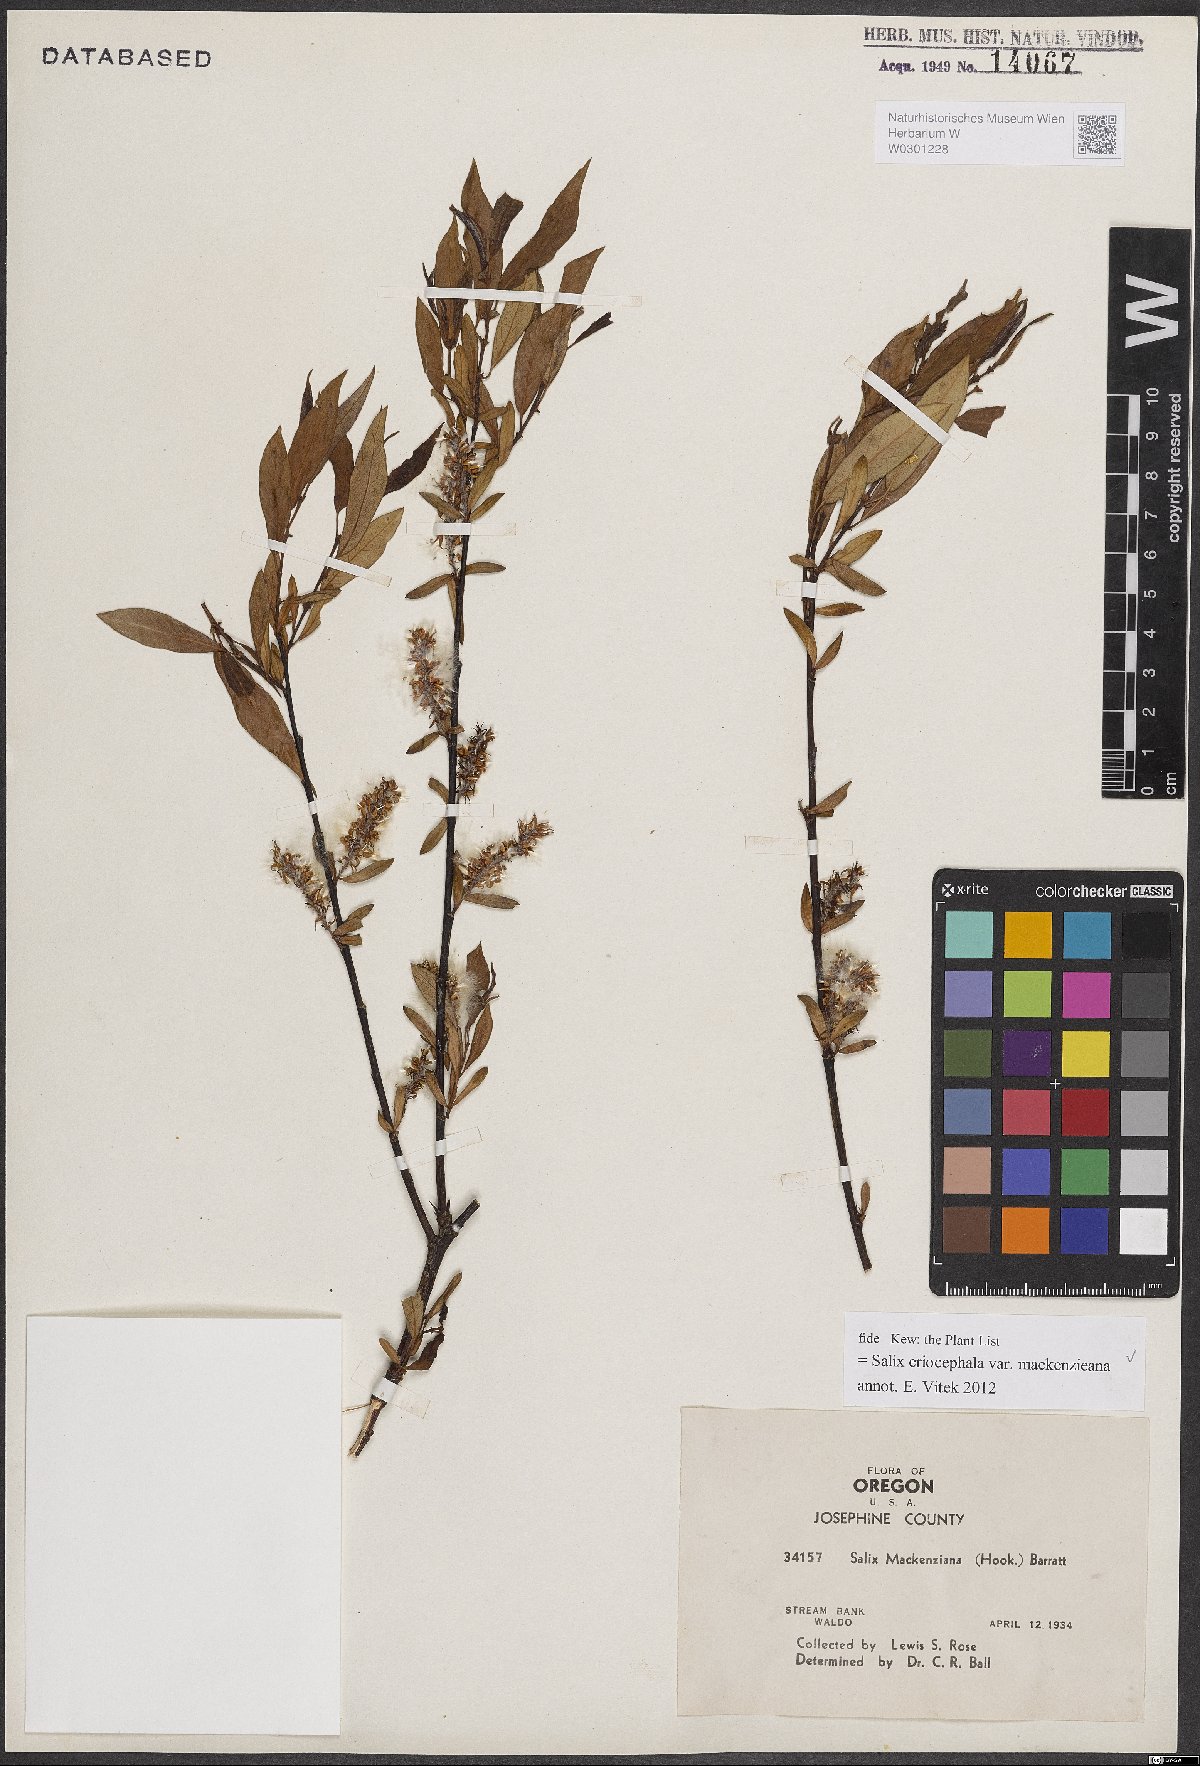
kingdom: Plantae
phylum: Tracheophyta
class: Magnoliopsida
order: Malpighiales
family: Salicaceae
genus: Salix
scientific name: Salix prolixa
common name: Mackenzie's willow
